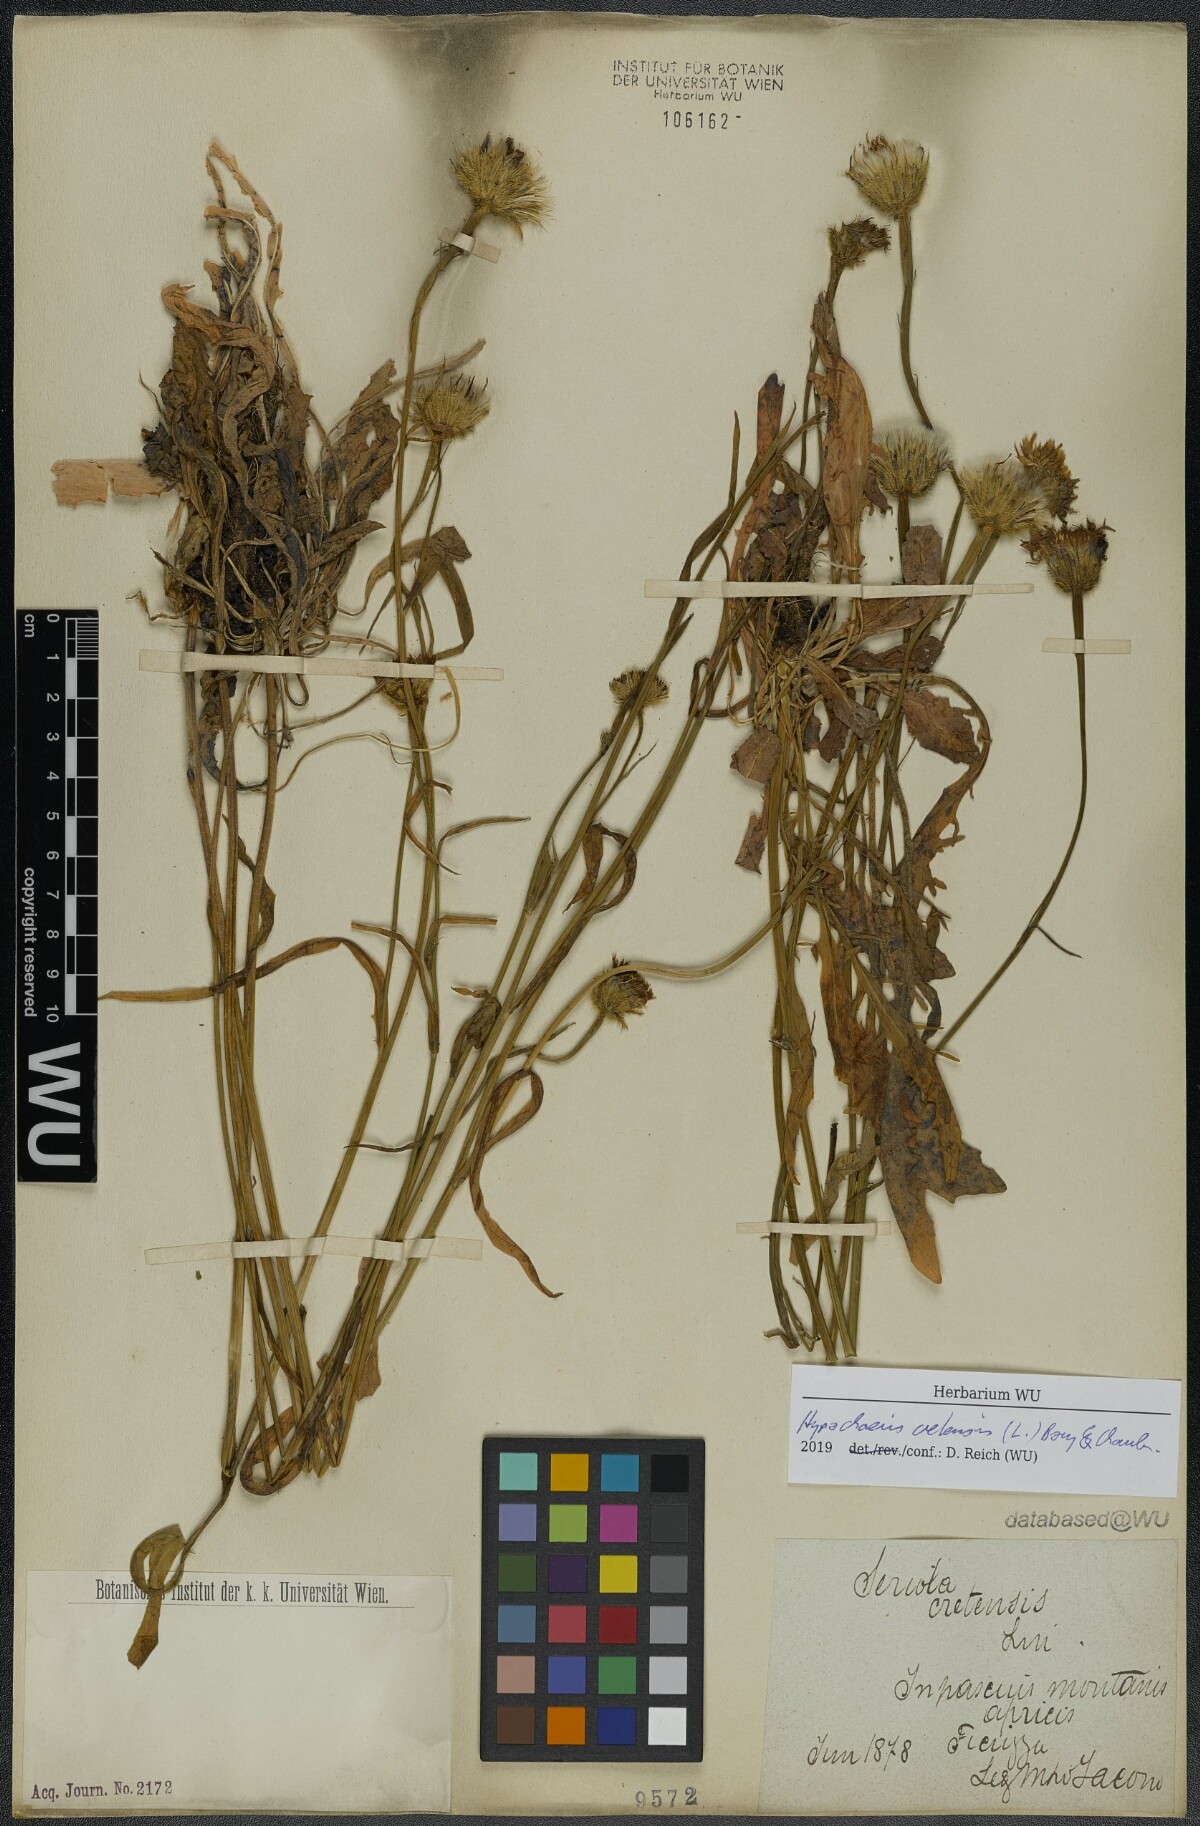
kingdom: Plantae
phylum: Tracheophyta
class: Magnoliopsida
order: Asterales
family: Asteraceae
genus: Hypochaeris
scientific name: Hypochaeris cretensis
